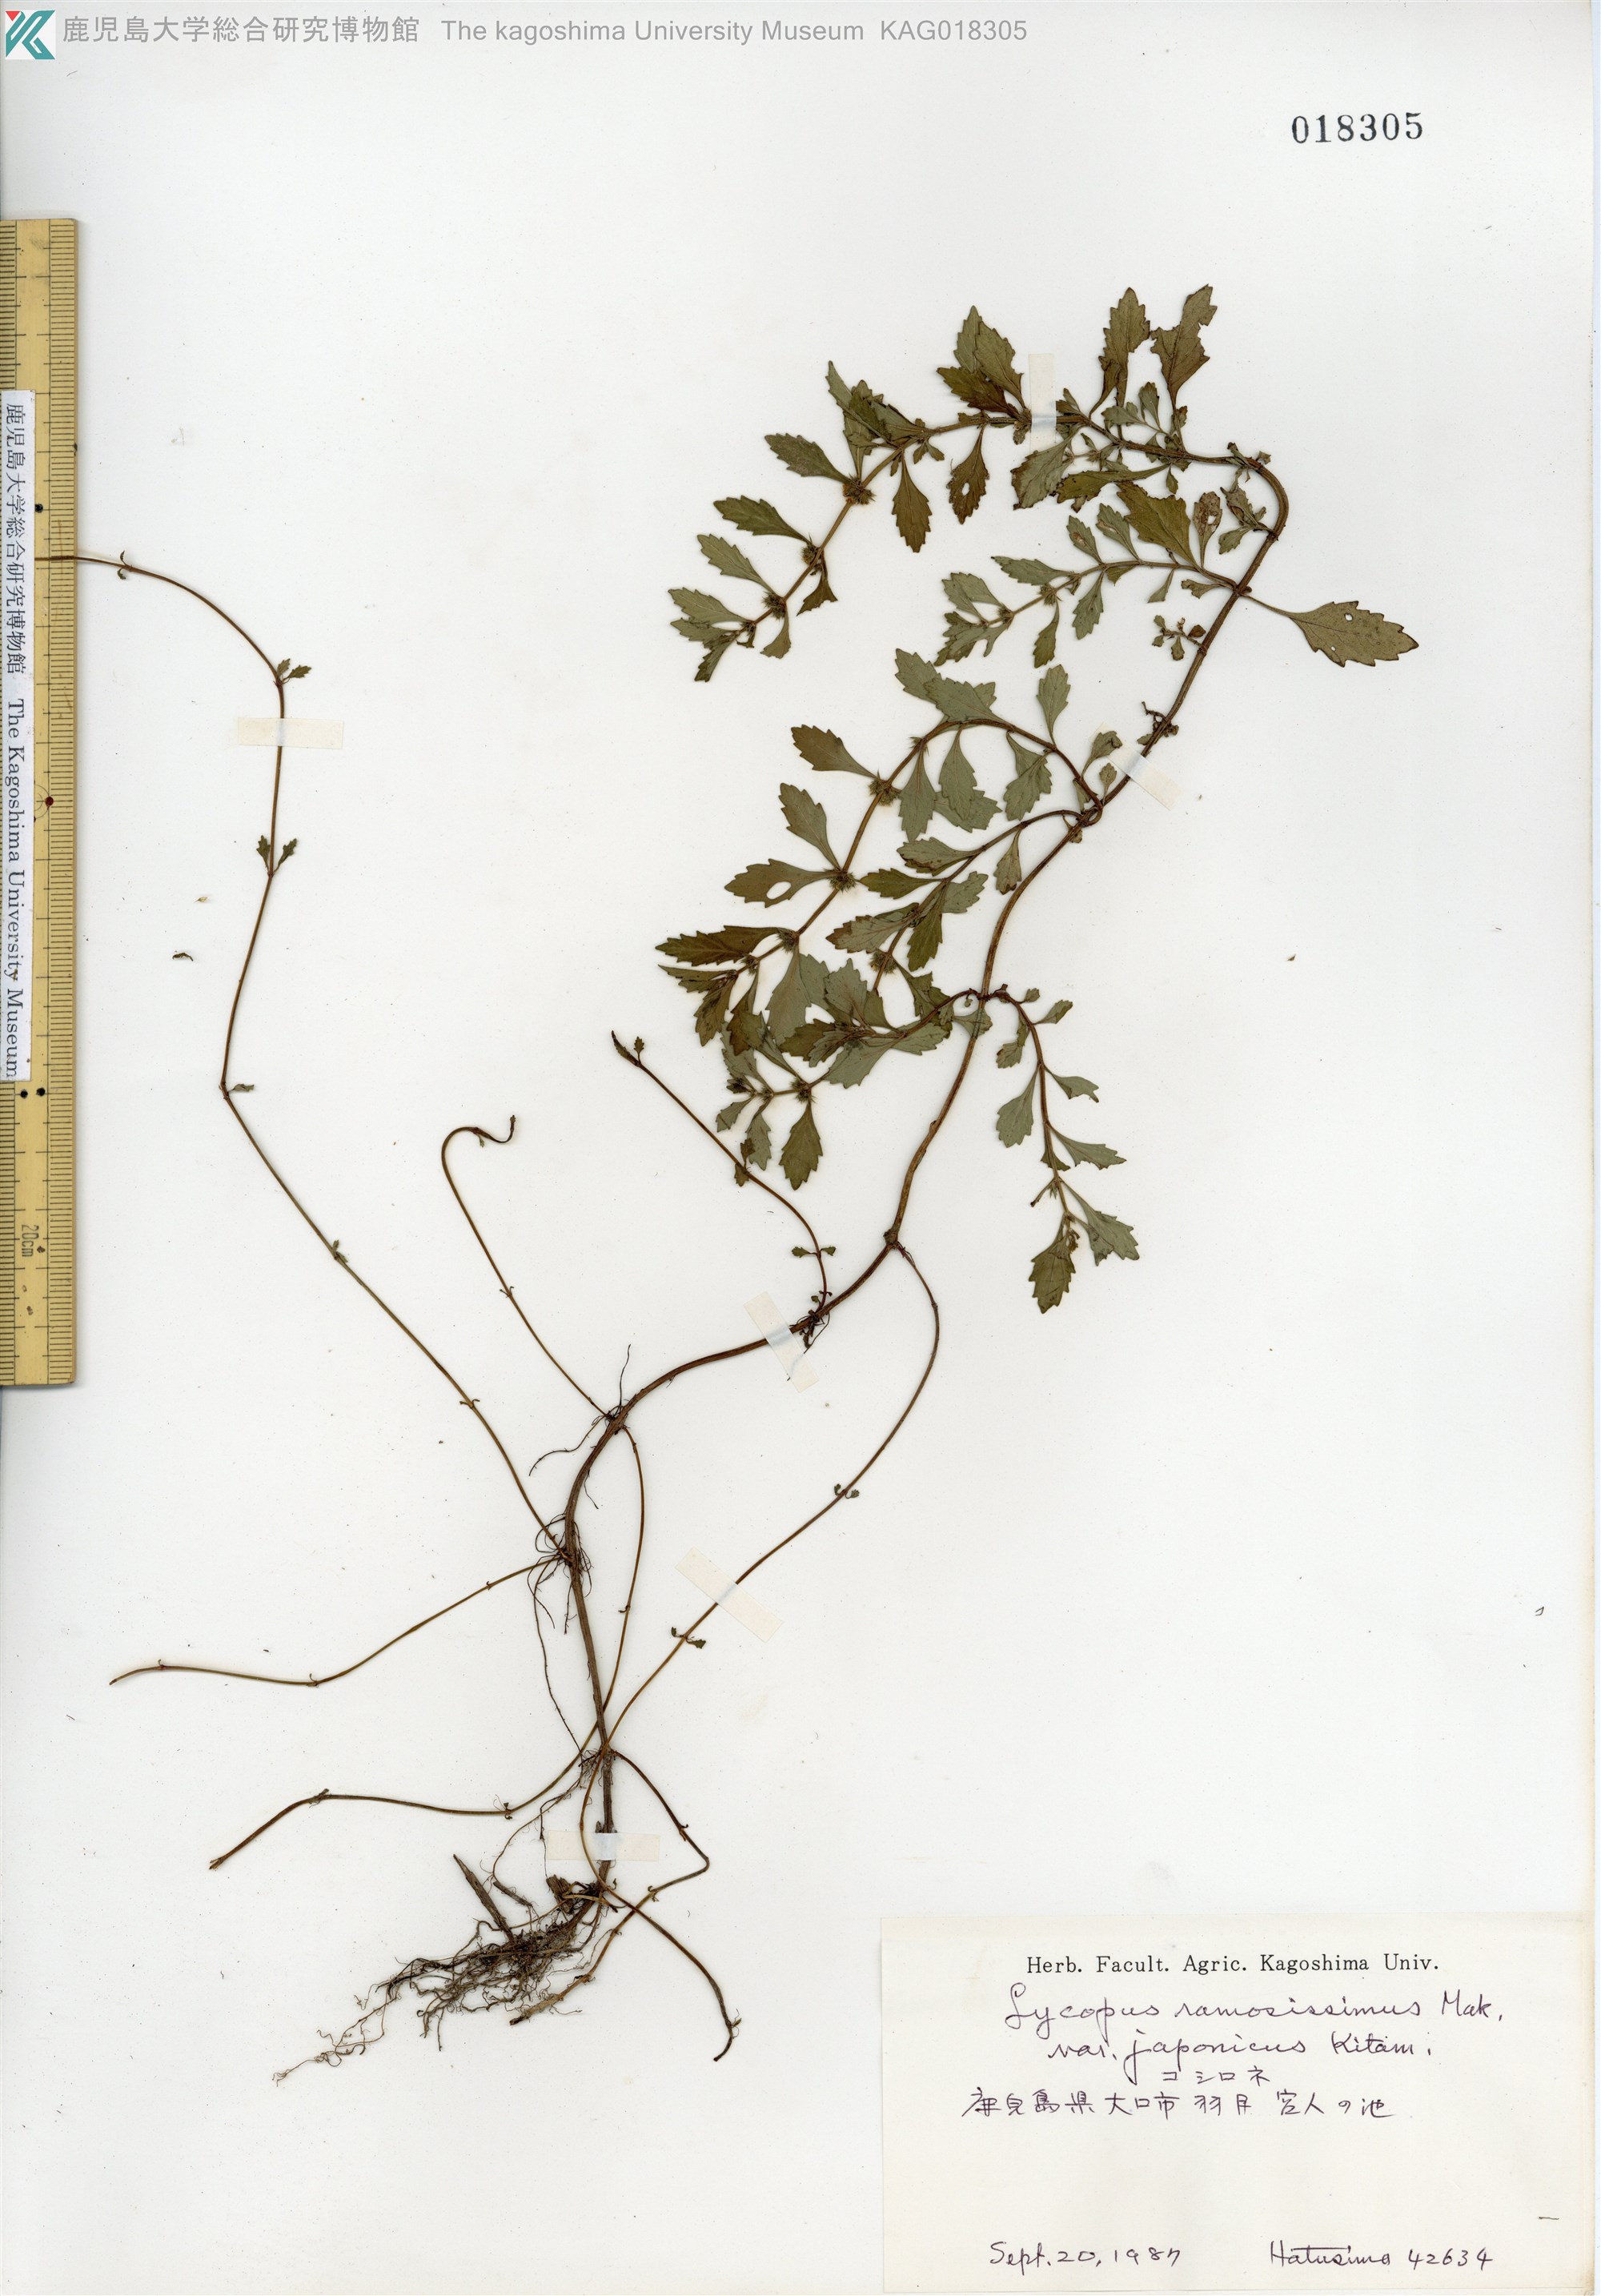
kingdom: Plantae
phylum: Tracheophyta
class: Magnoliopsida
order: Lamiales
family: Lamiaceae
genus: Lycopus
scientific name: Lycopus cavaleriei
